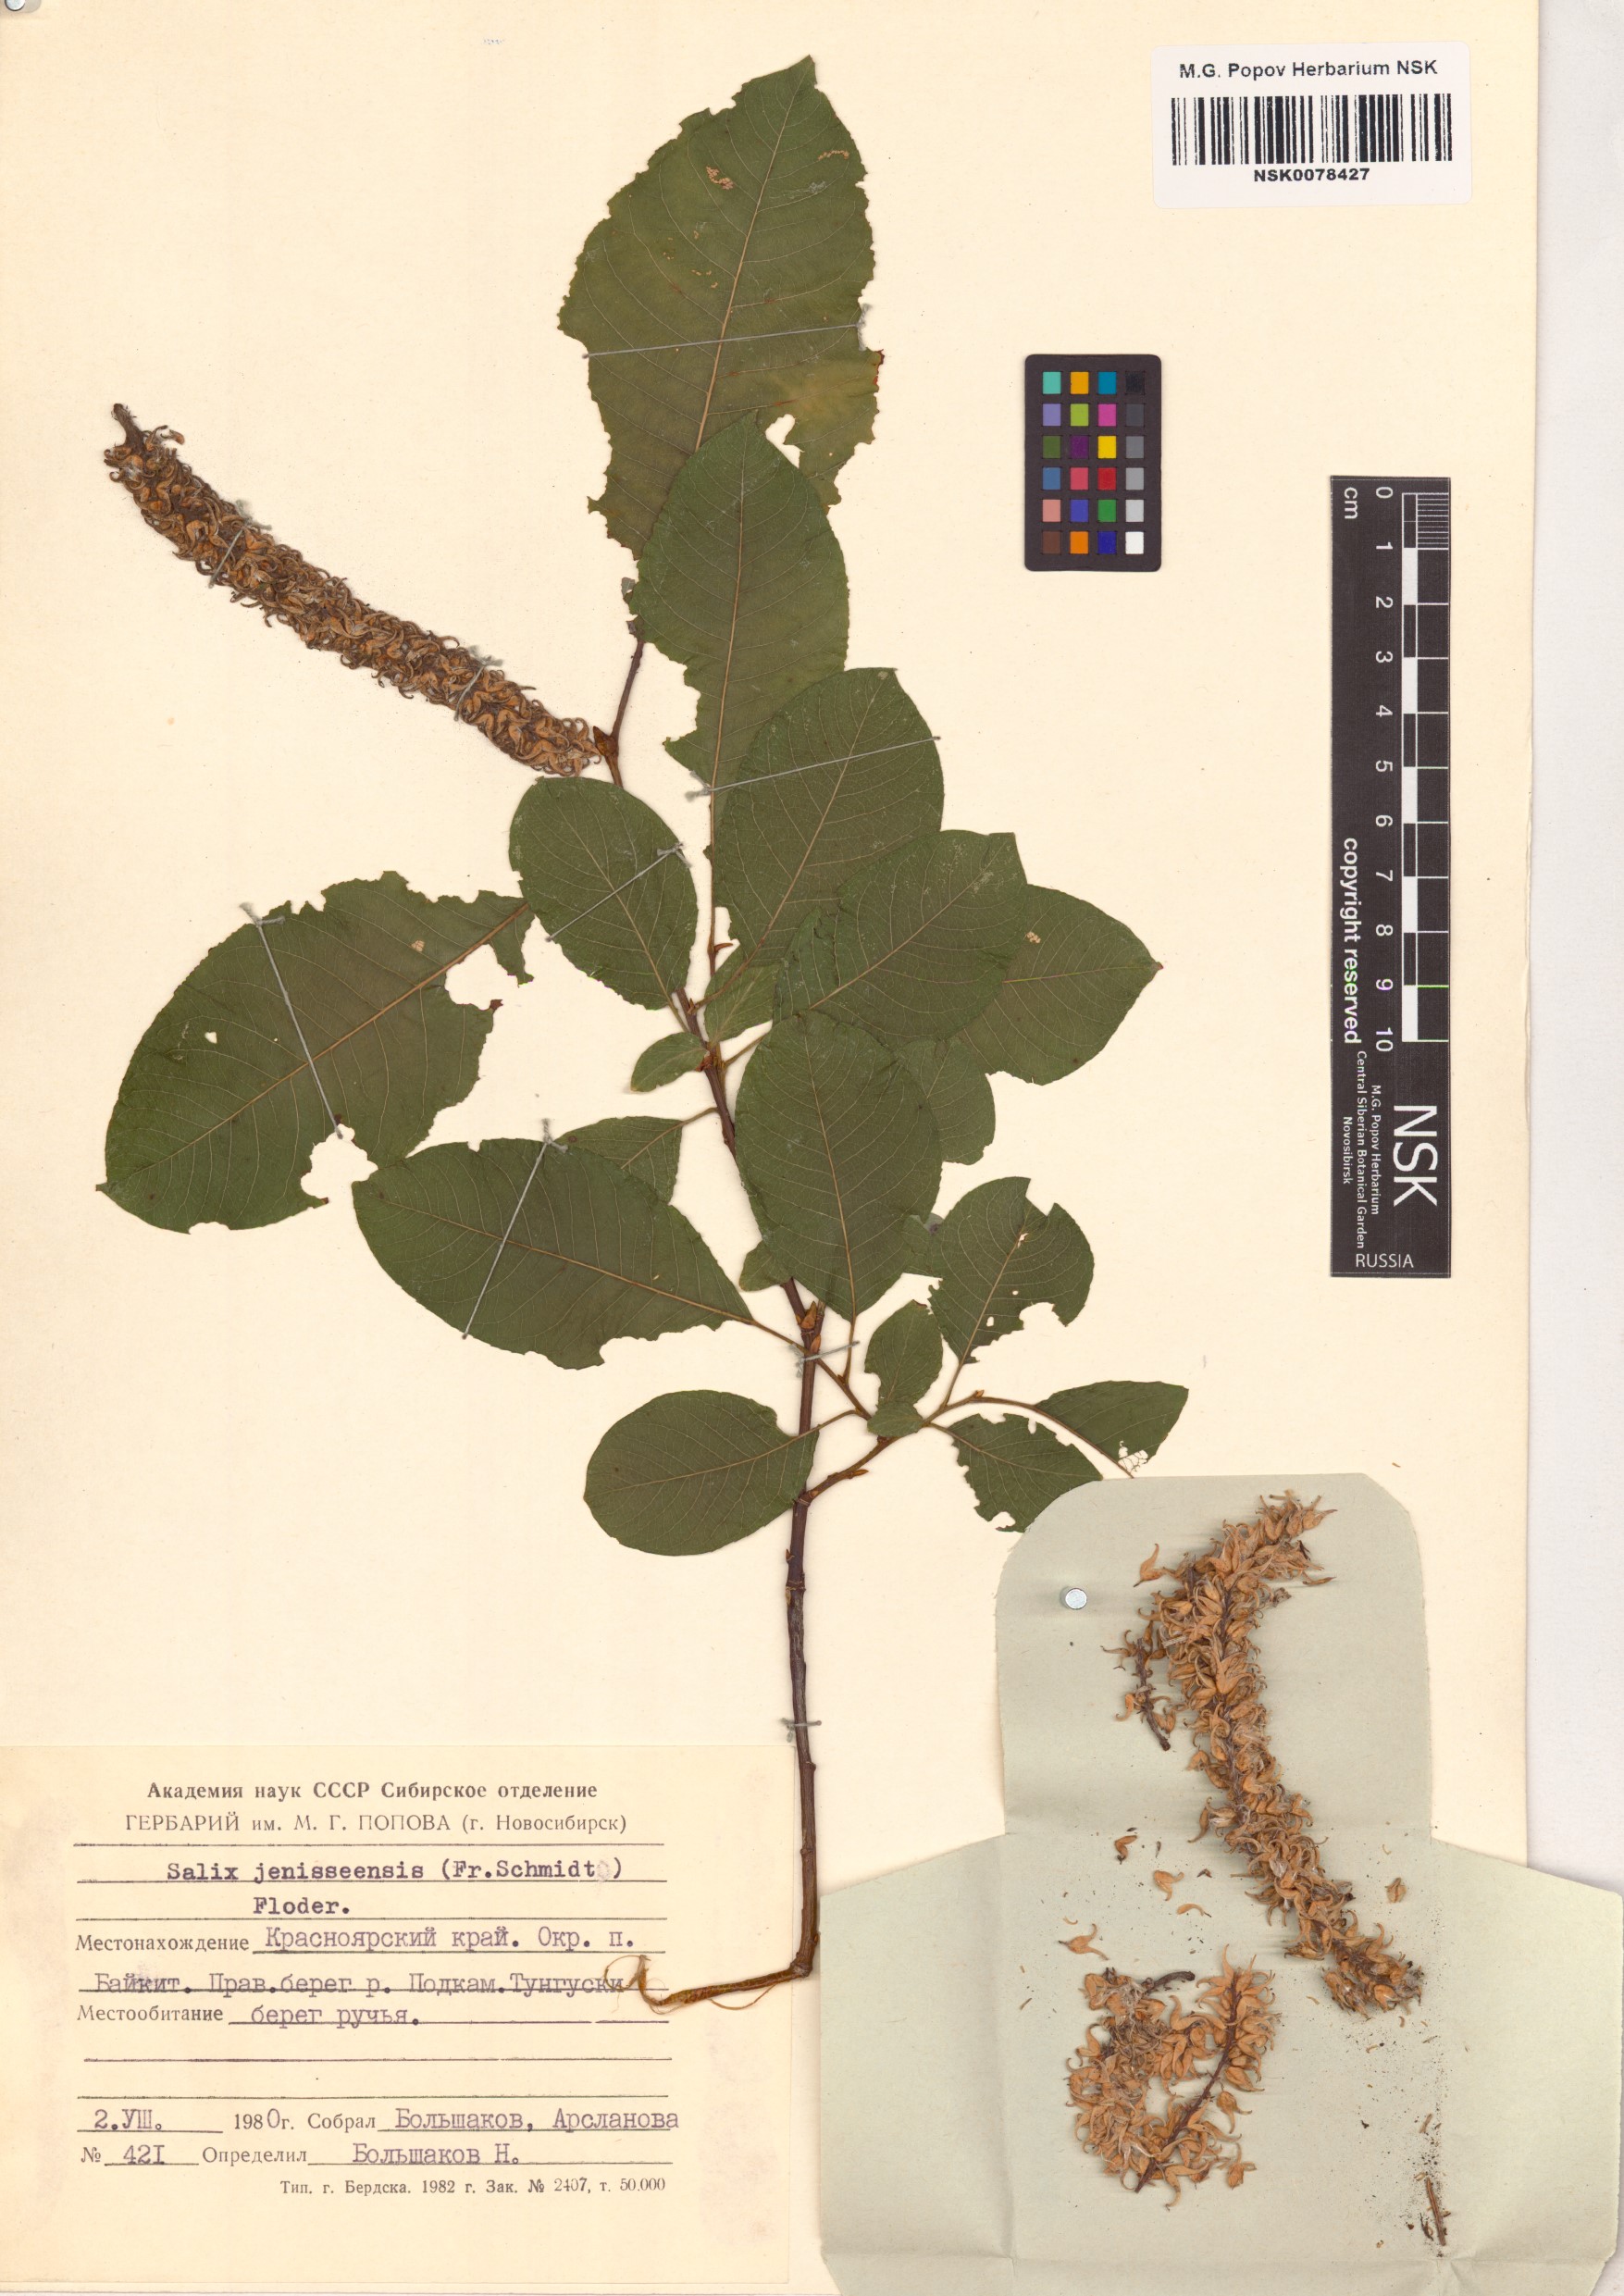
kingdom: Plantae
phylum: Tracheophyta
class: Magnoliopsida
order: Malpighiales
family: Salicaceae
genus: Salix
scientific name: Salix jenisseensis
